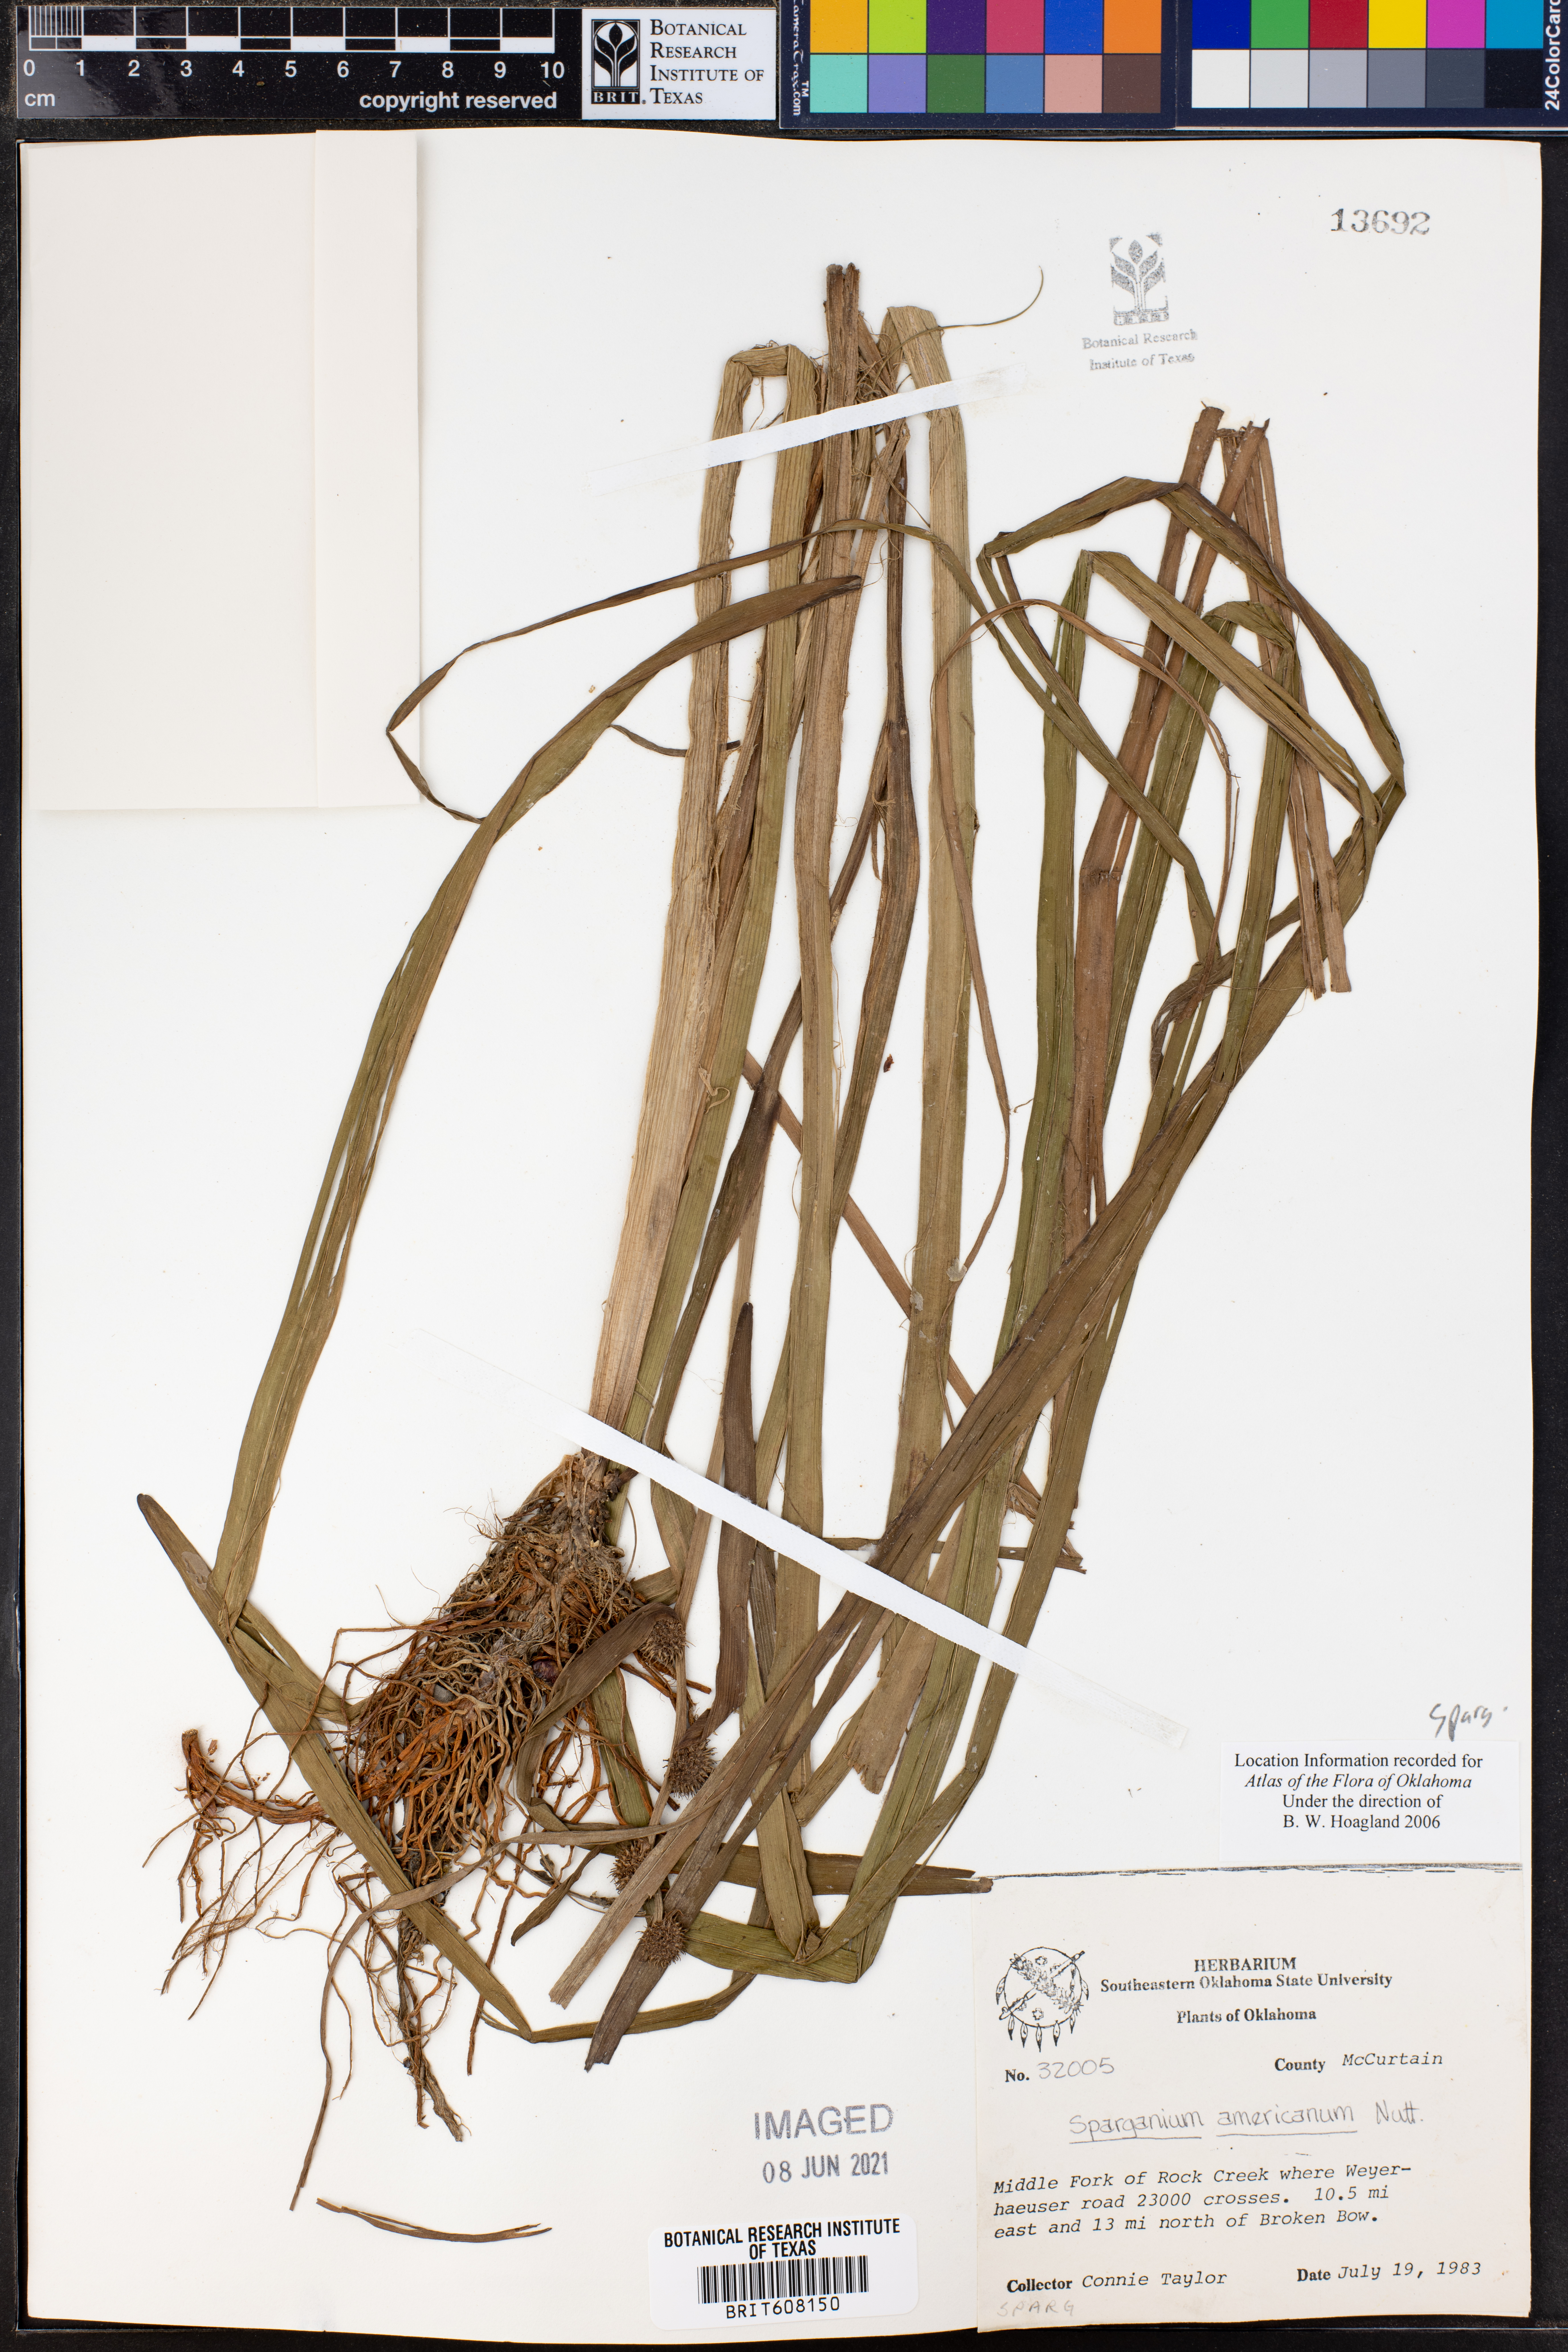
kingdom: Plantae
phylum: Tracheophyta
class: Liliopsida
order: Poales
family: Typhaceae
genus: Sparganium
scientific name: Sparganium americanum
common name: American burreed
